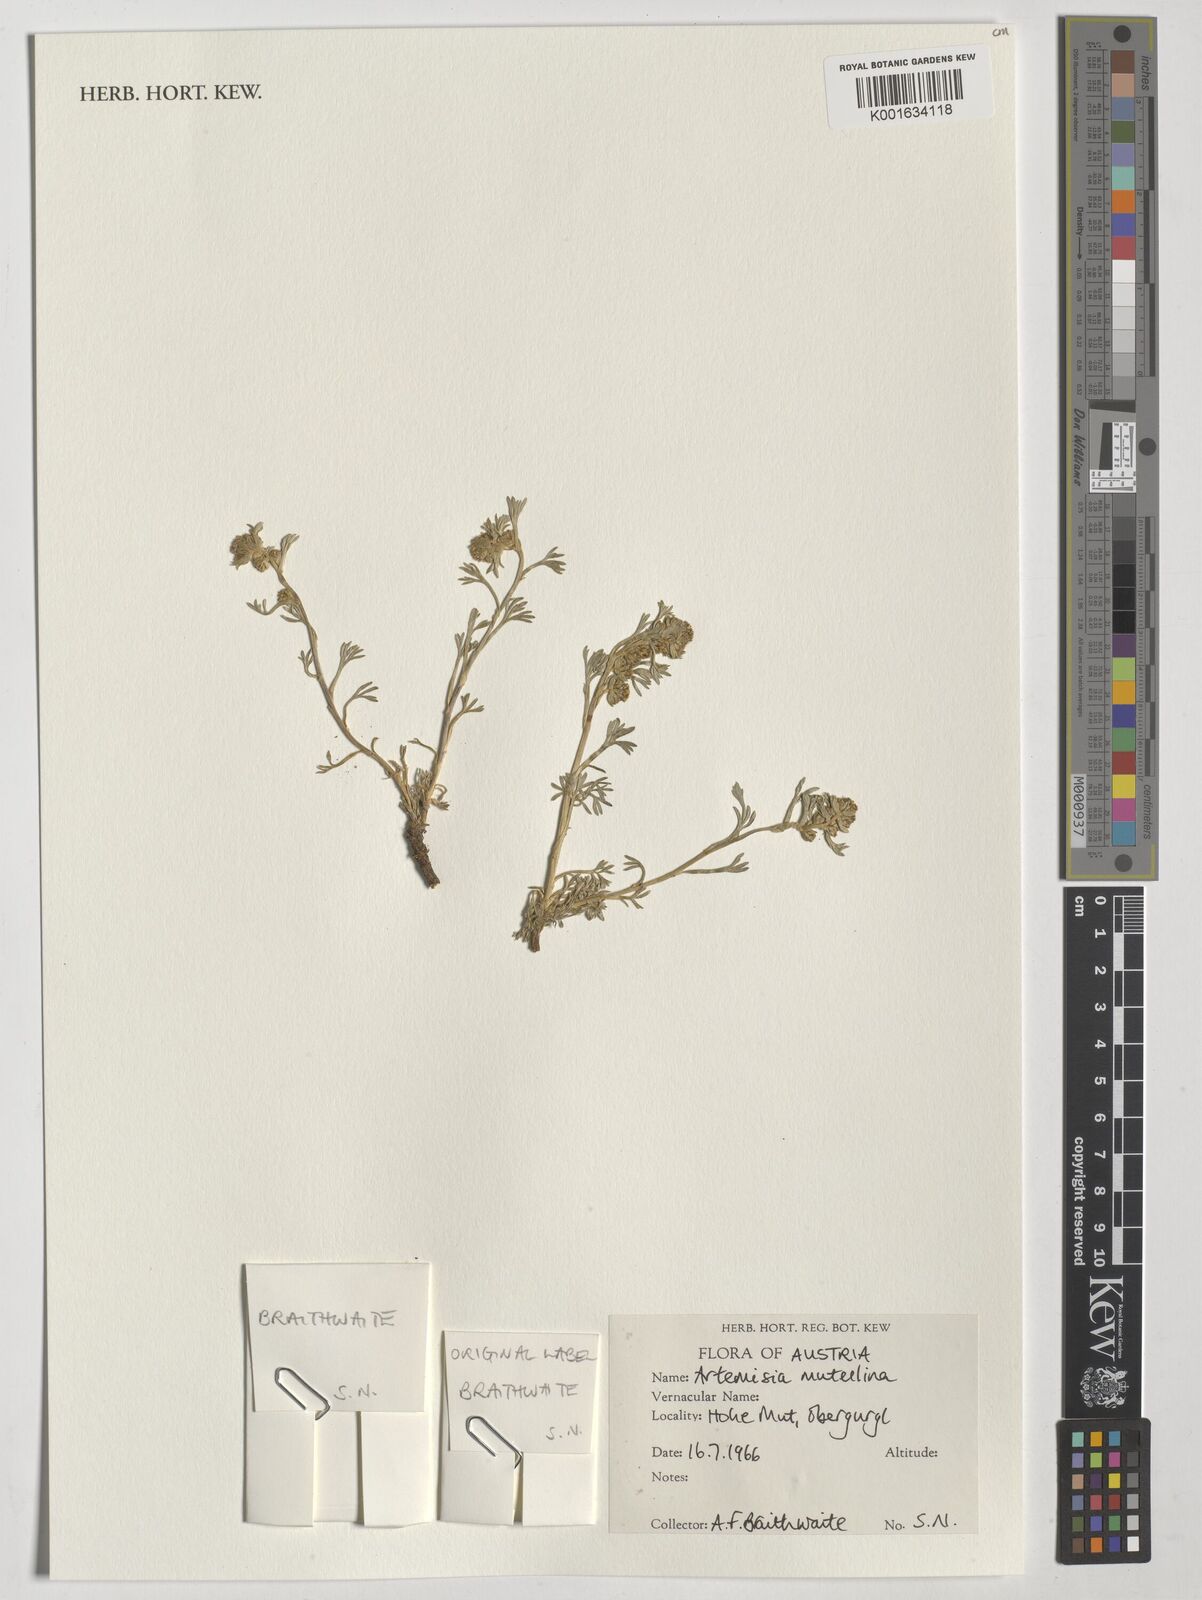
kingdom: Plantae
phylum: Tracheophyta
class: Magnoliopsida
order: Asterales
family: Asteraceae
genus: Artemisia
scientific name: Artemisia mutellina
